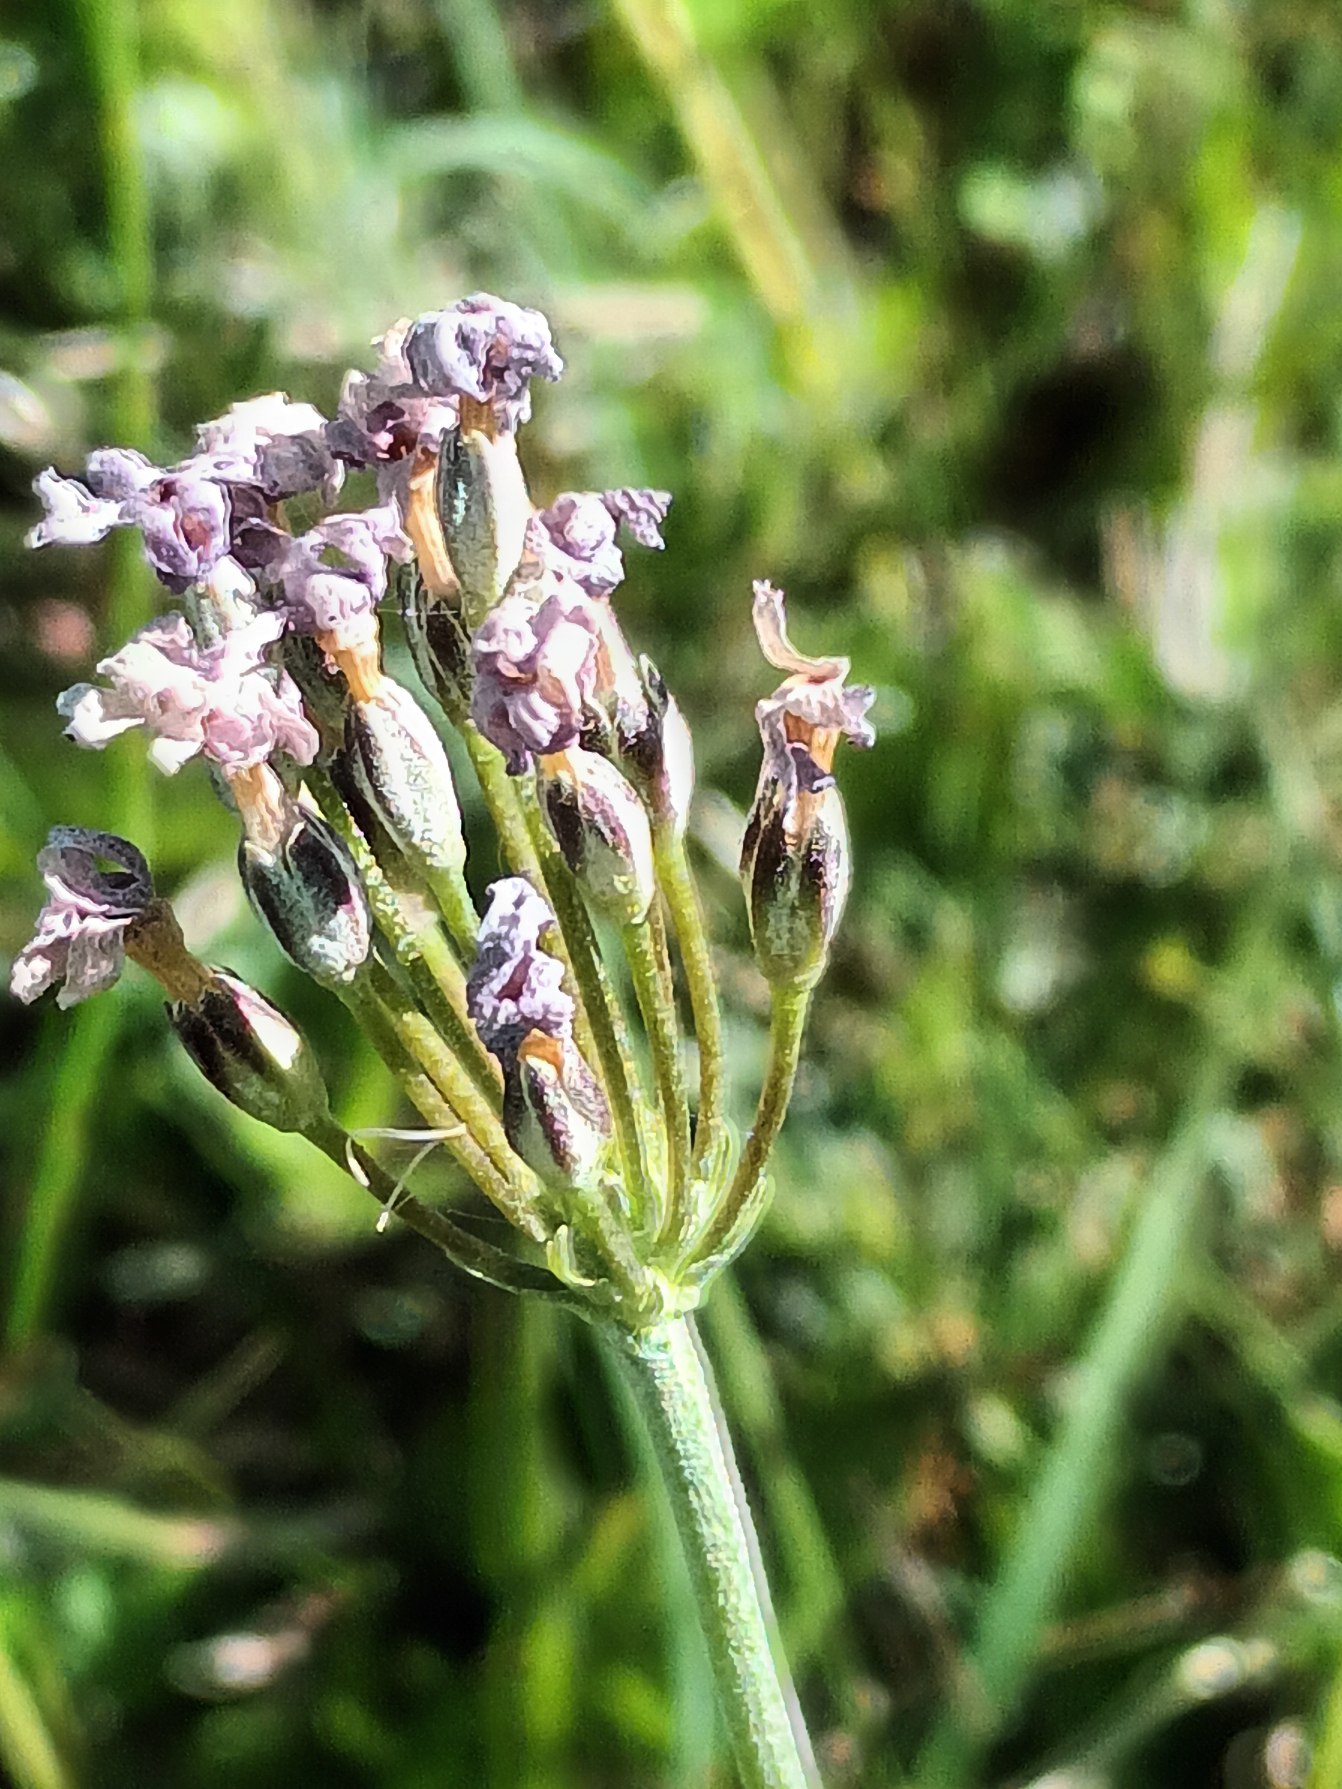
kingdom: Plantae
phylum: Tracheophyta
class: Magnoliopsida
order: Ericales
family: Primulaceae
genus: Primula
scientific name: Primula farinosa
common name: Melet kodriver
